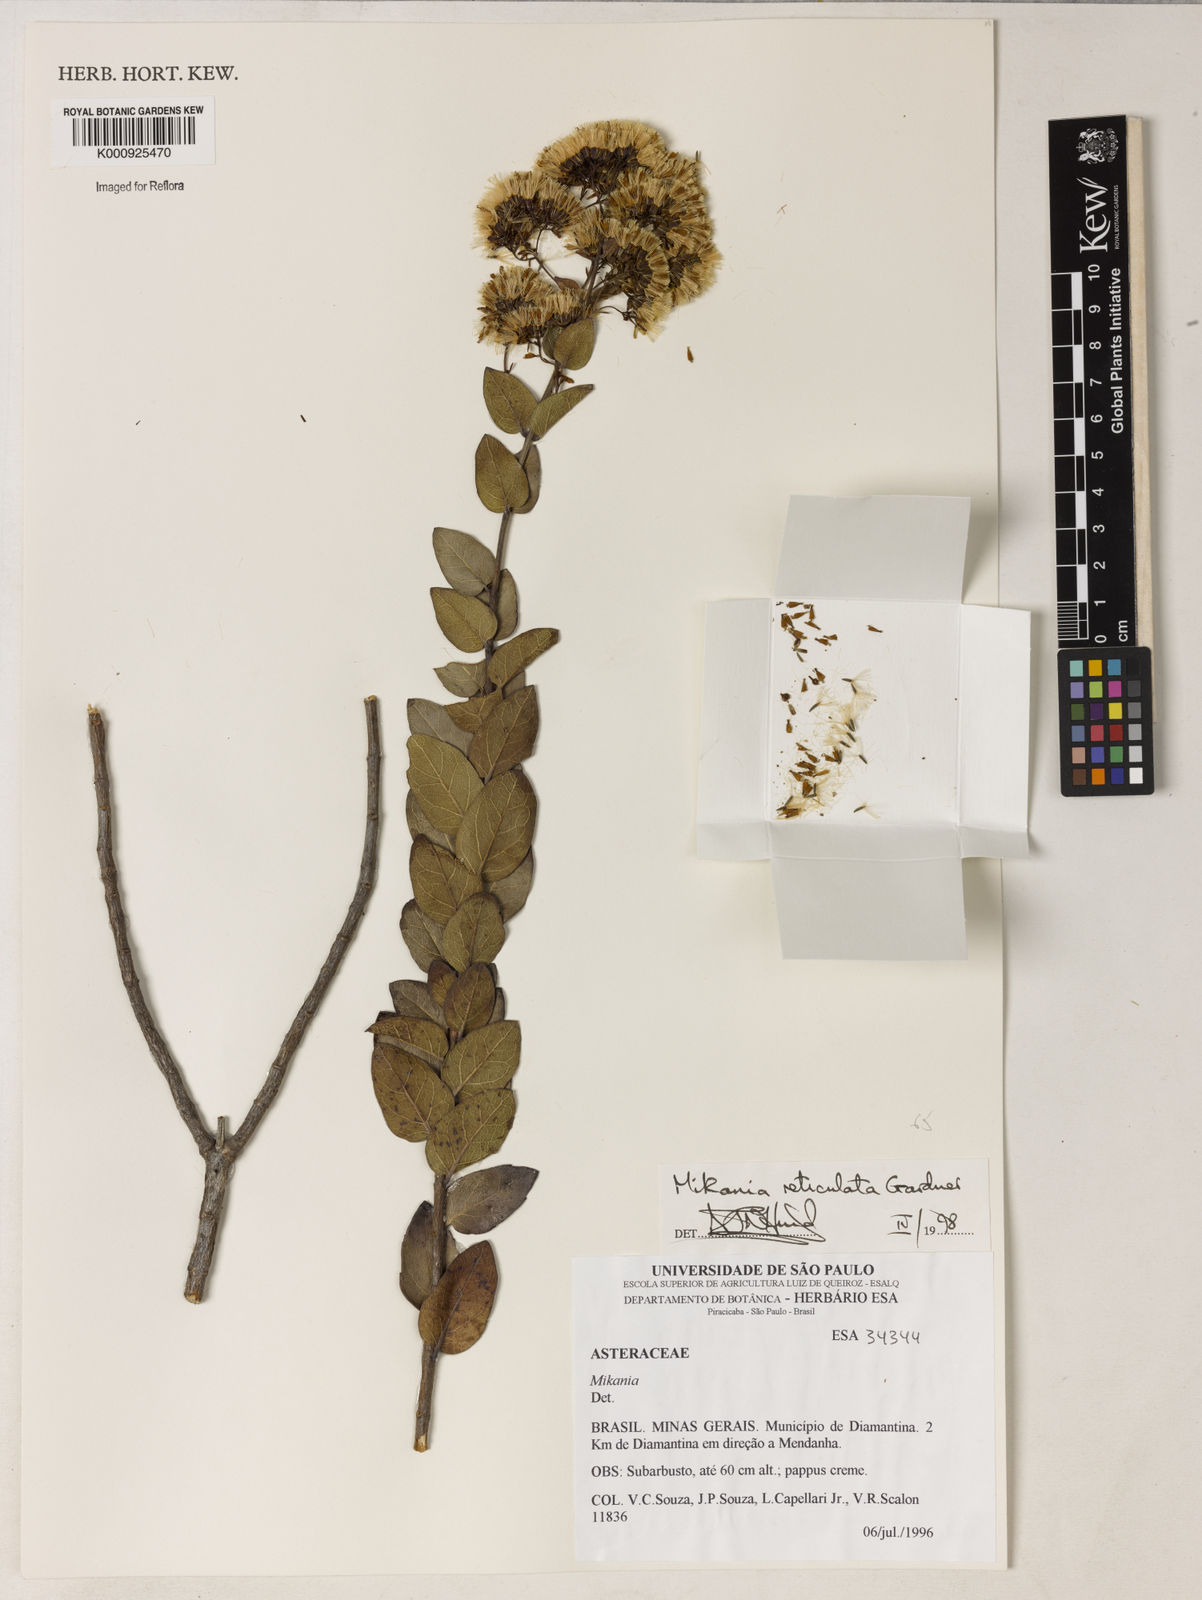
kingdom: Plantae
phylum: Tracheophyta
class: Magnoliopsida
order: Asterales
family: Asteraceae
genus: Mikania
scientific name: Mikania
